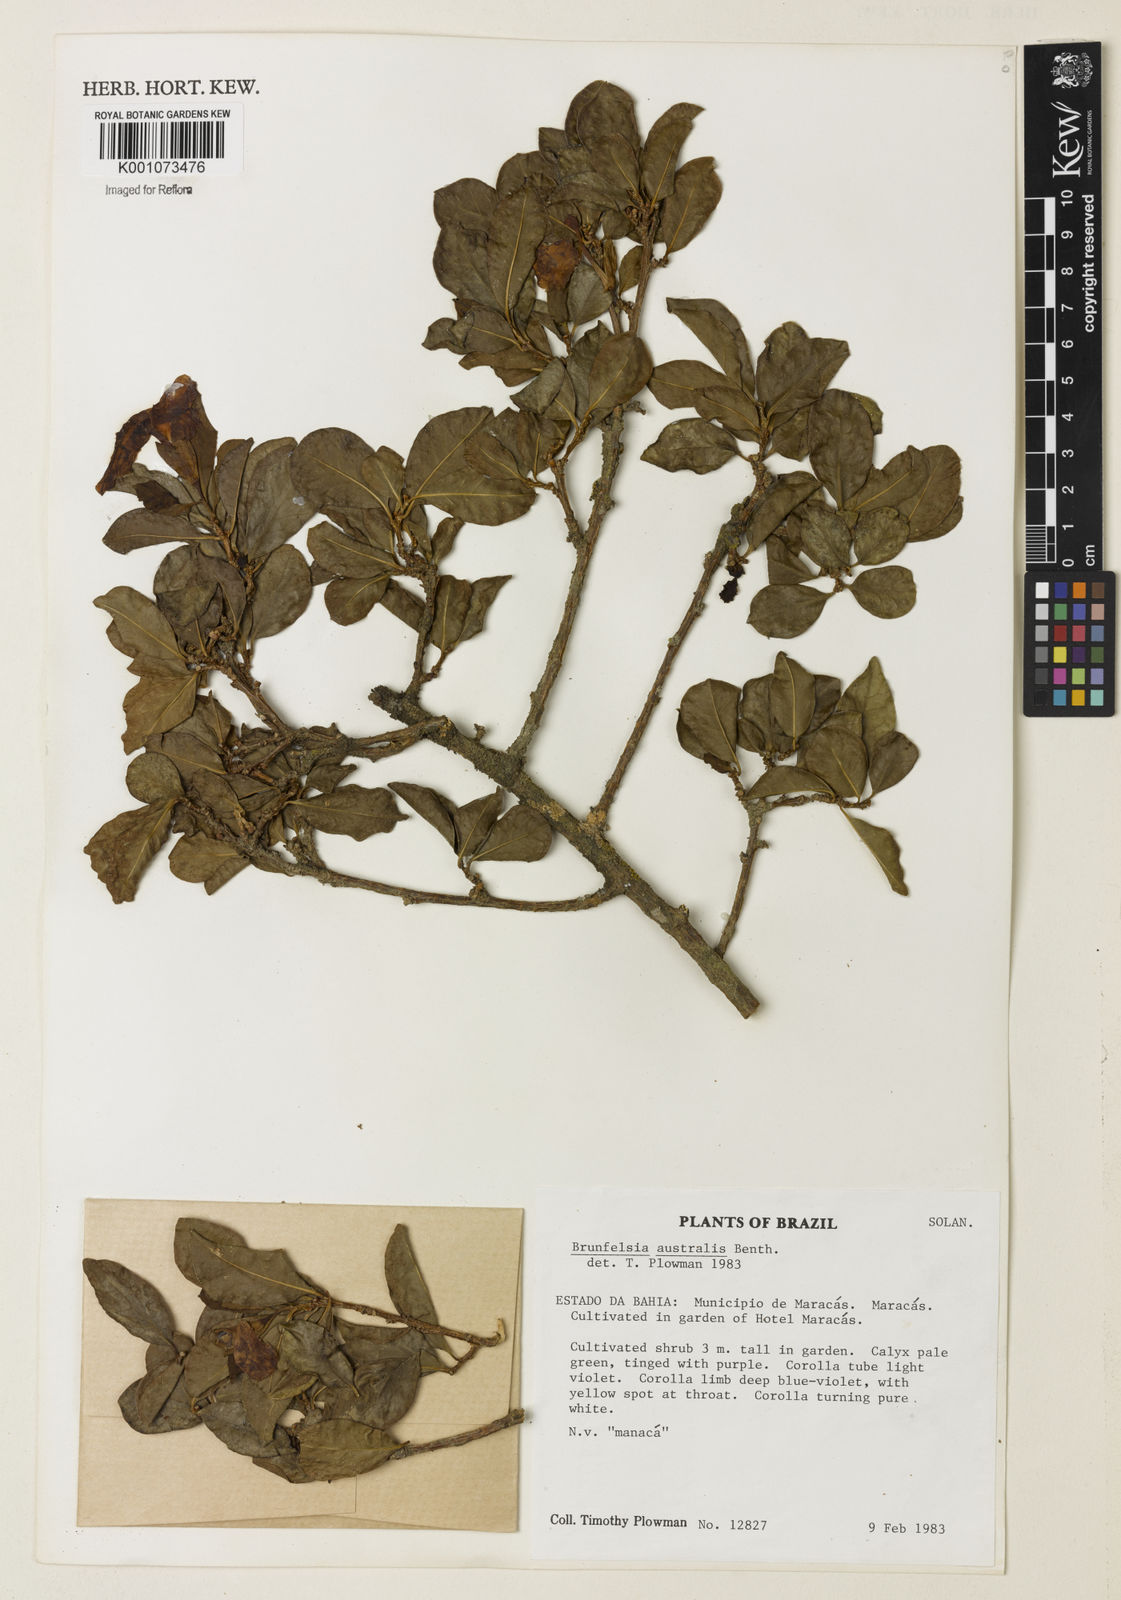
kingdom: Plantae
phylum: Tracheophyta
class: Magnoliopsida
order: Solanales
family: Solanaceae
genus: Brunfelsia
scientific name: Brunfelsia australis
